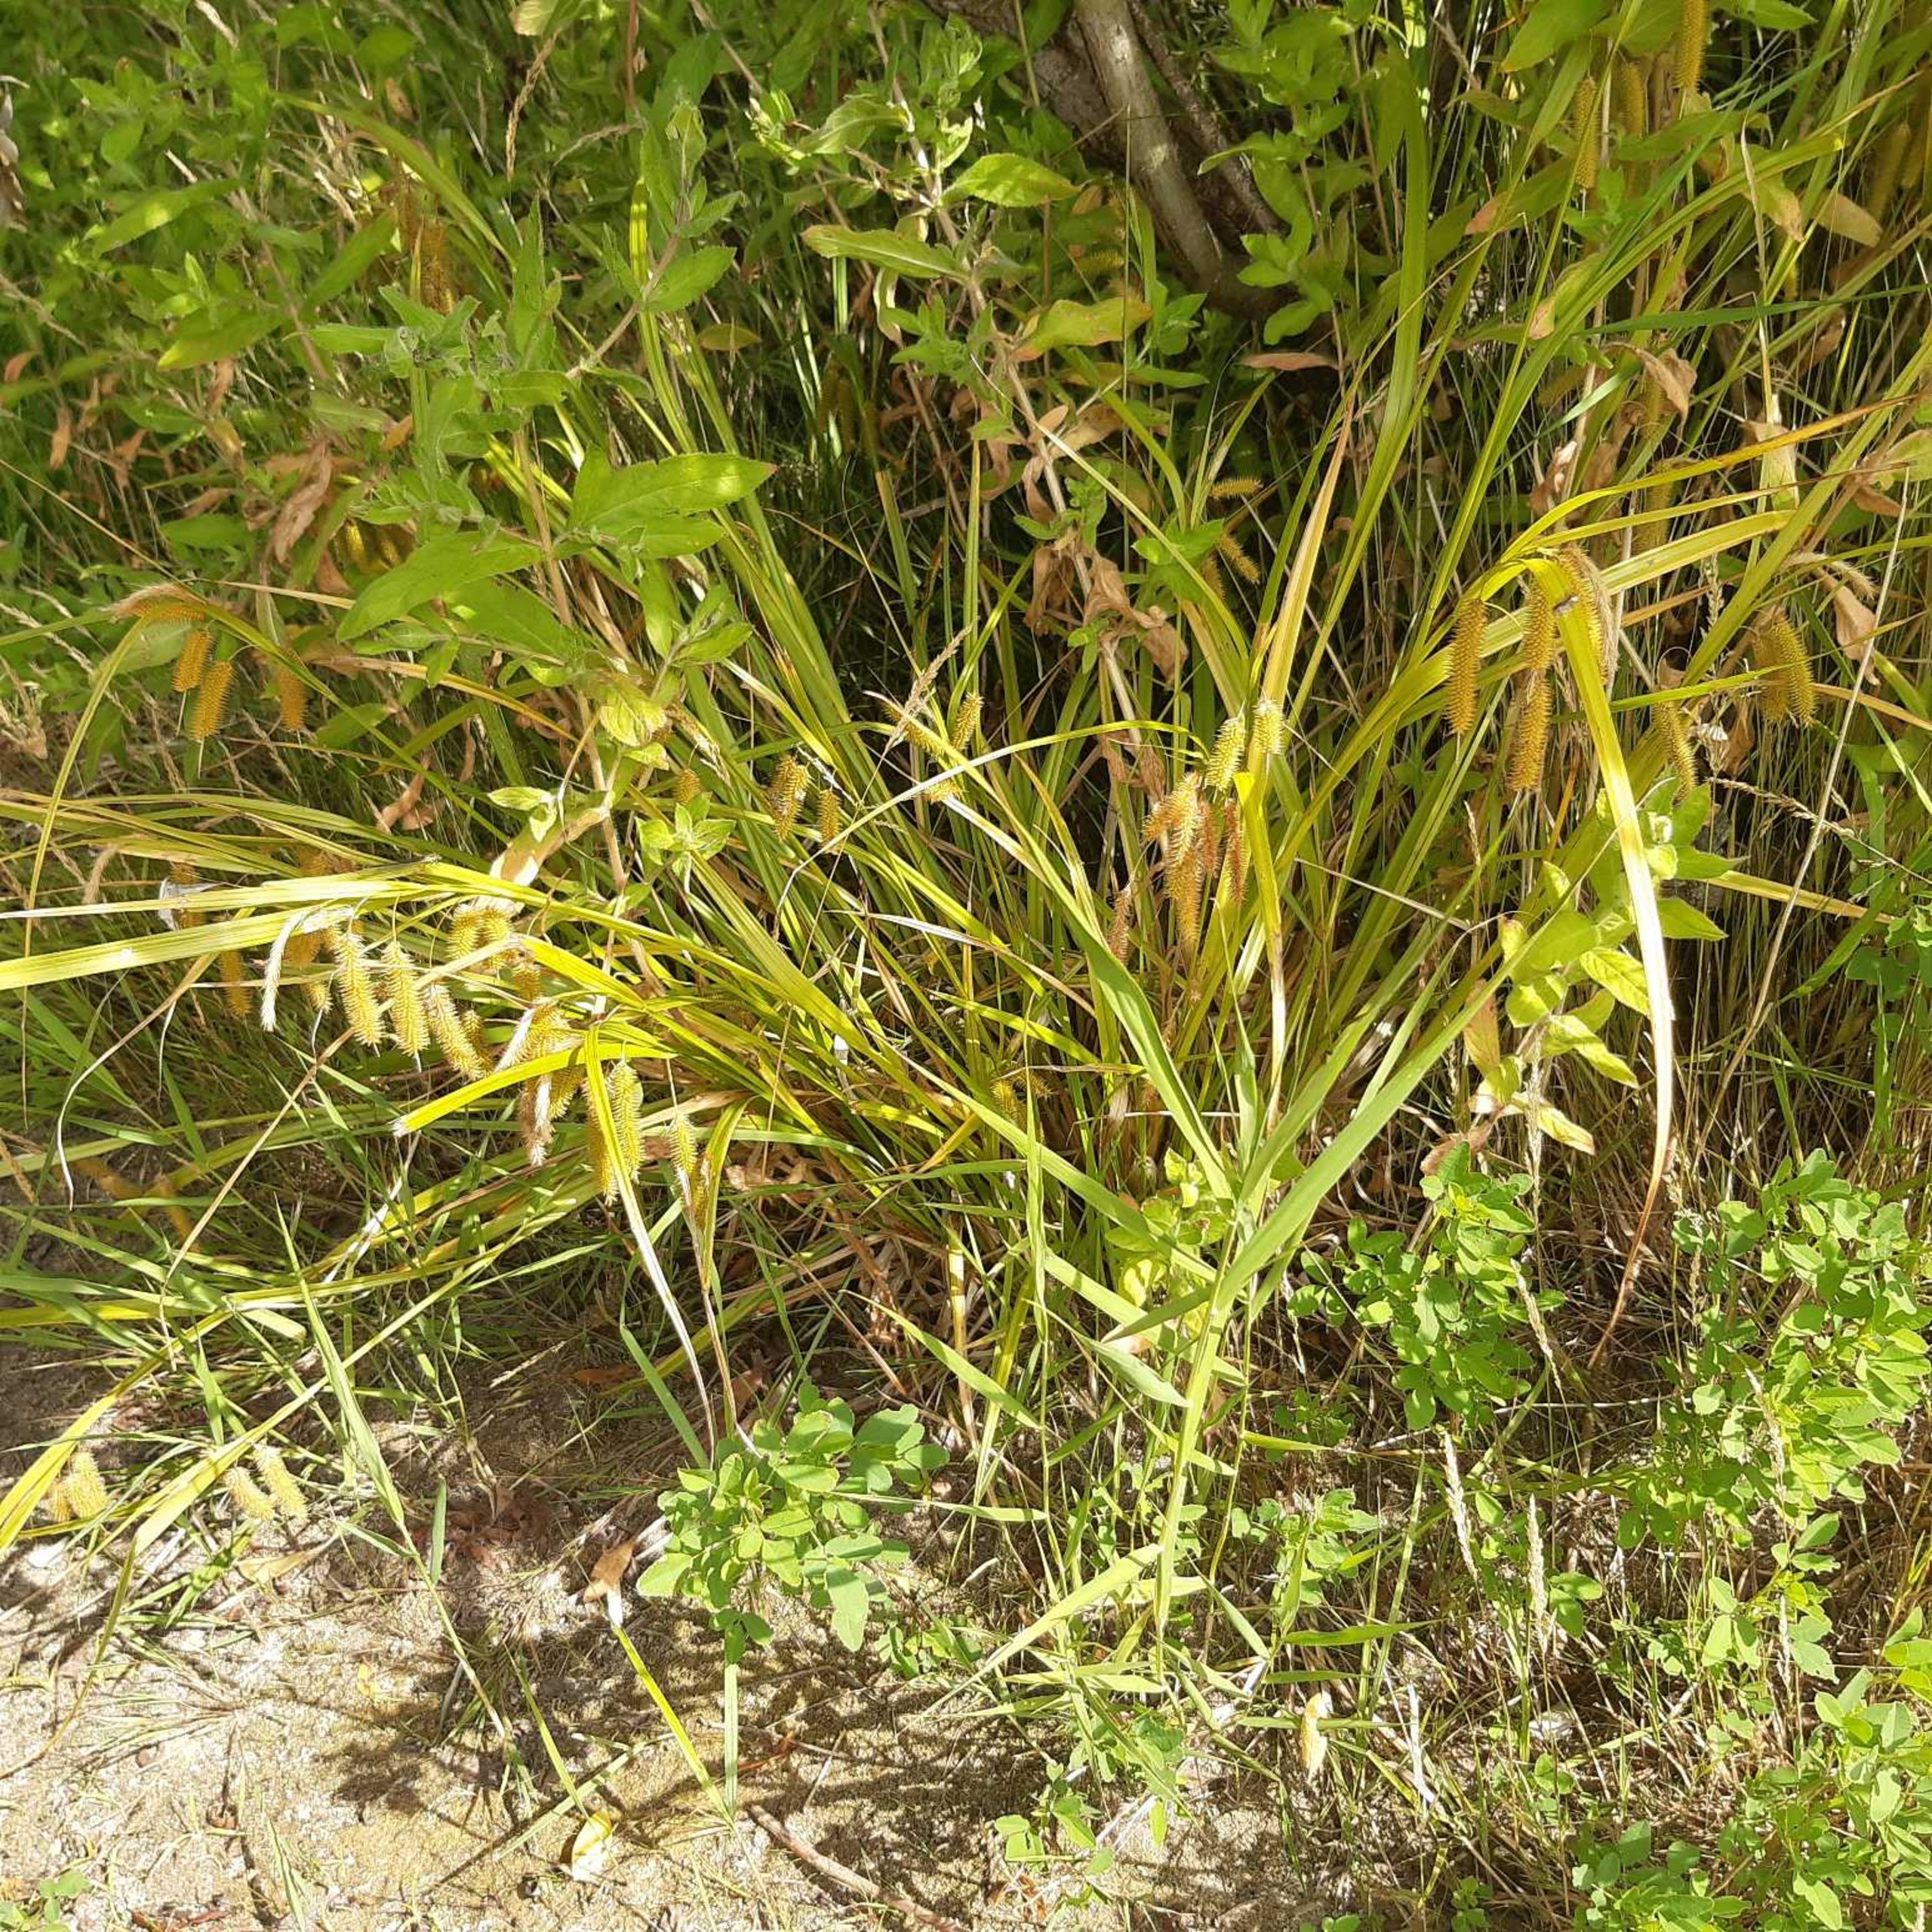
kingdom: Plantae
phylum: Tracheophyta
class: Liliopsida
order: Poales
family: Cyperaceae
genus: Carex
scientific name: Carex pseudocyperus
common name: Knippe-star
